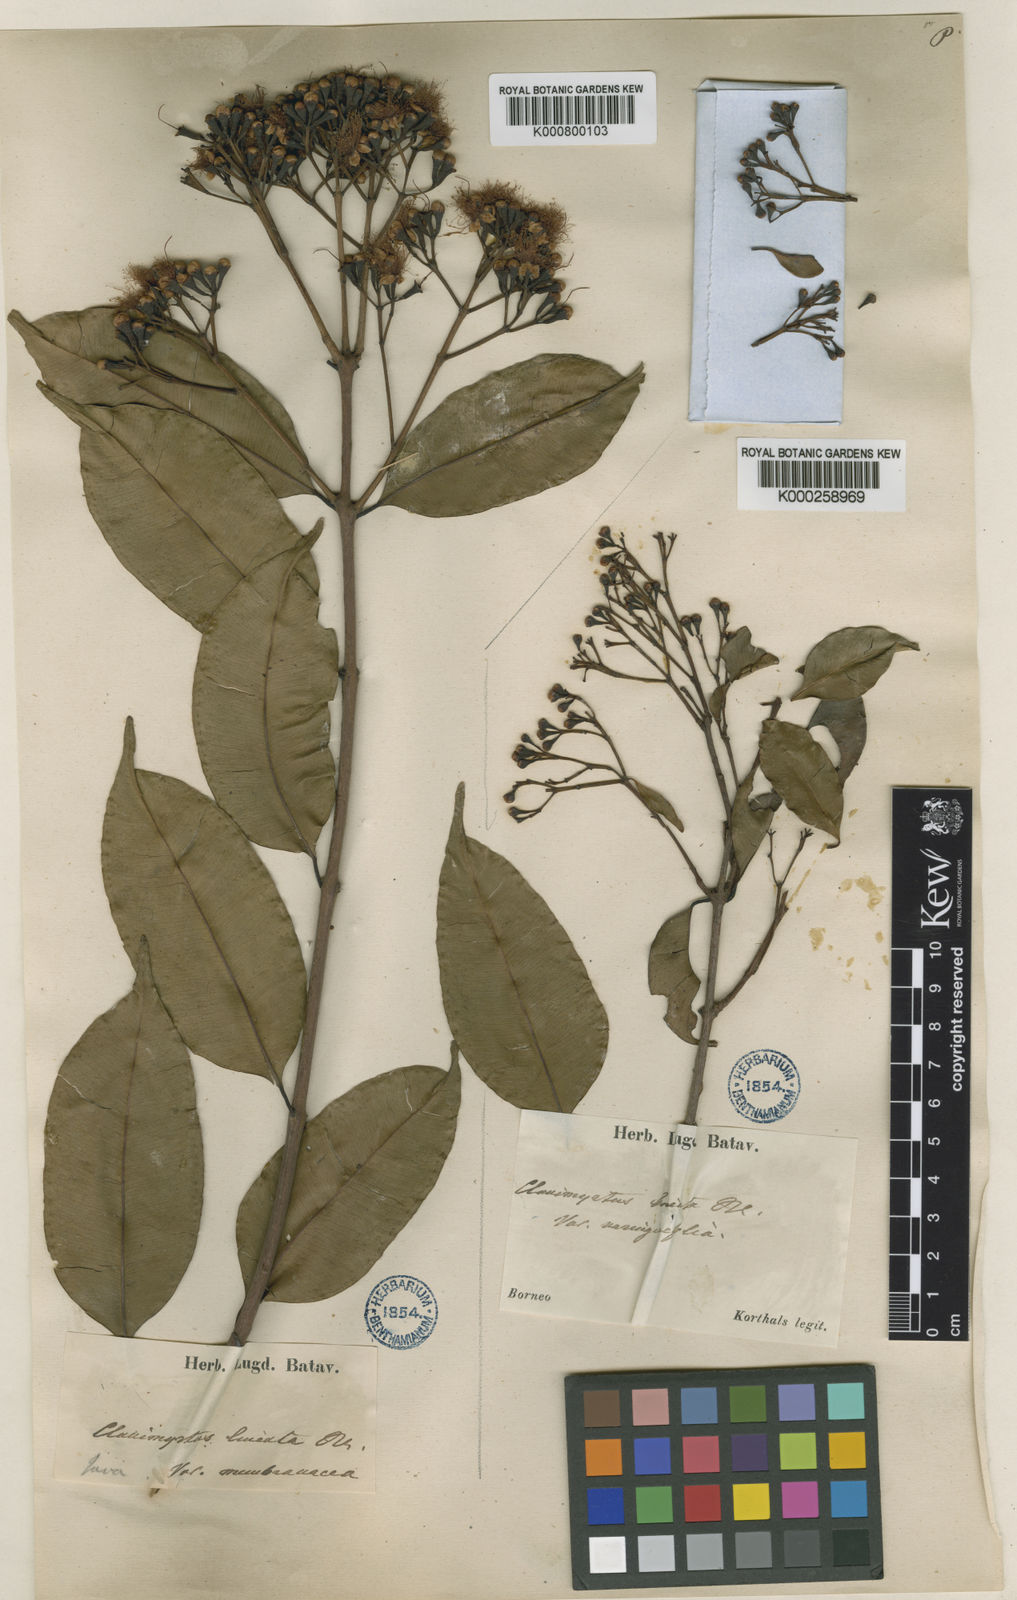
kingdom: Plantae
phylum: Tracheophyta
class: Magnoliopsida
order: Myrtales
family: Myrtaceae
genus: Syzygium
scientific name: Syzygium lineatum
